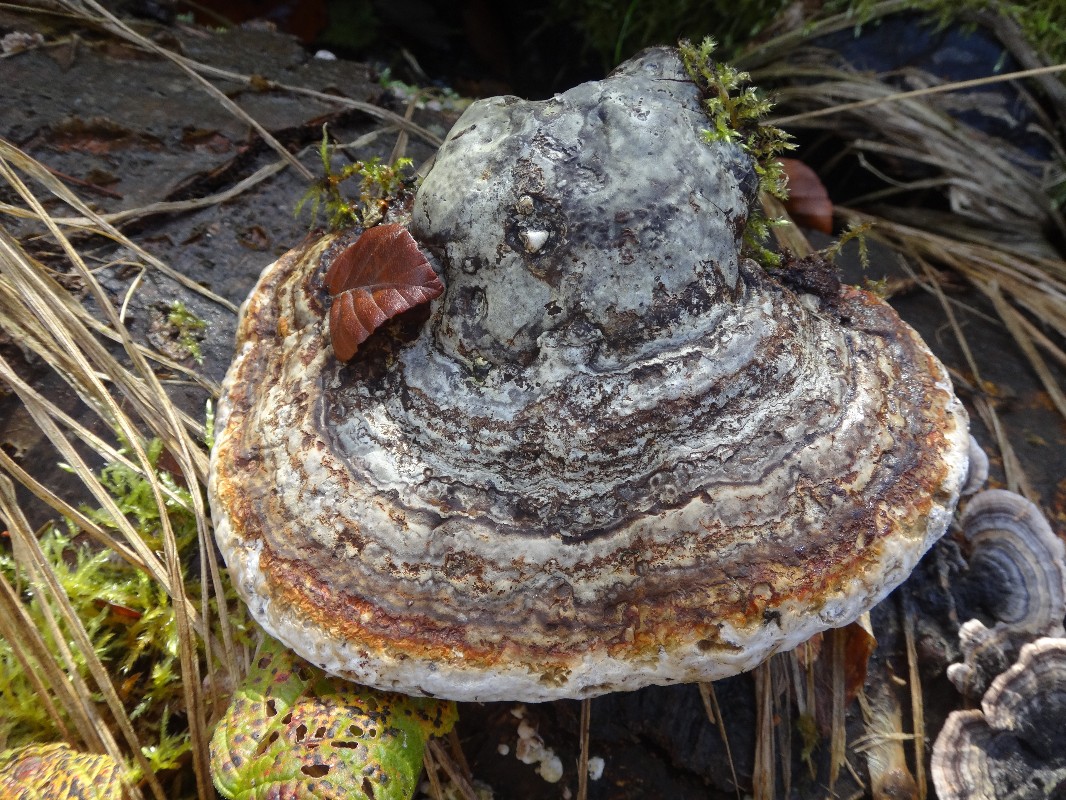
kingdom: Fungi
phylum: Basidiomycota
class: Agaricomycetes
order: Polyporales
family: Polyporaceae
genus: Fomes
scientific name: Fomes fomentarius
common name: tøndersvamp
